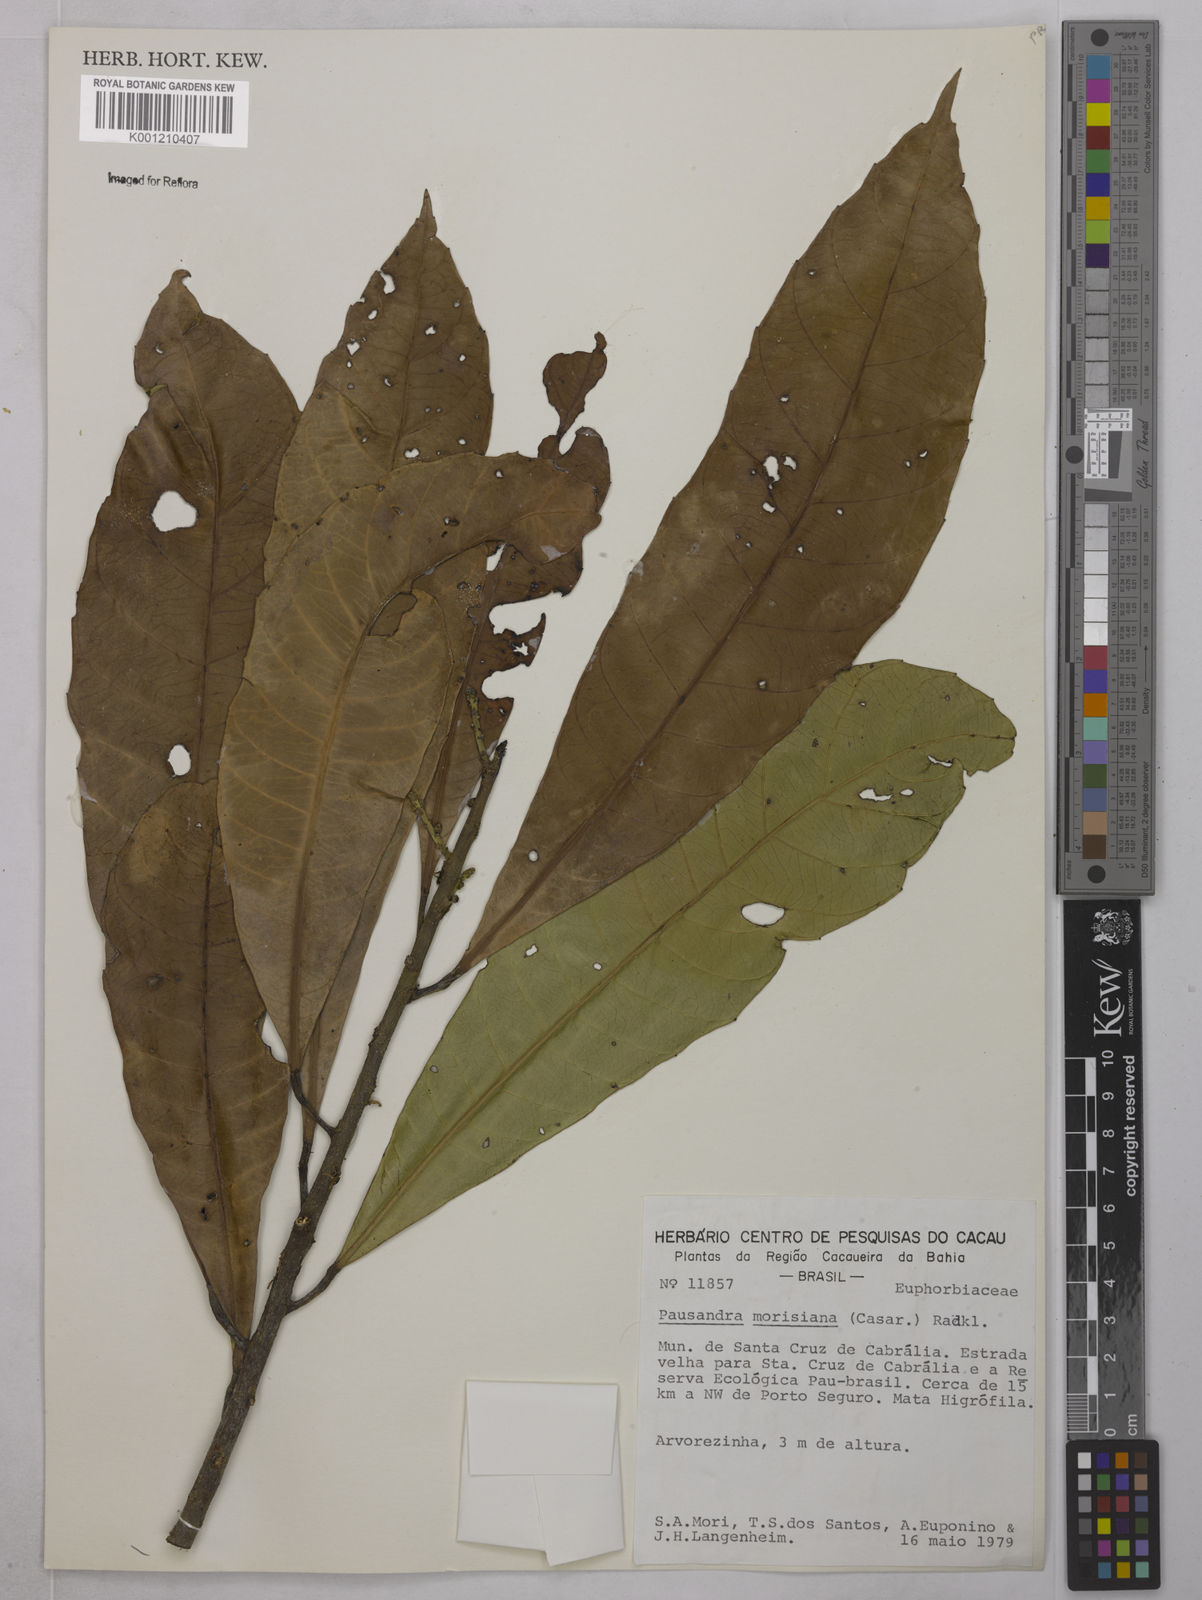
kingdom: Plantae
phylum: Tracheophyta
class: Magnoliopsida
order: Malpighiales
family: Euphorbiaceae
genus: Pausandra
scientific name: Pausandra morisiana
